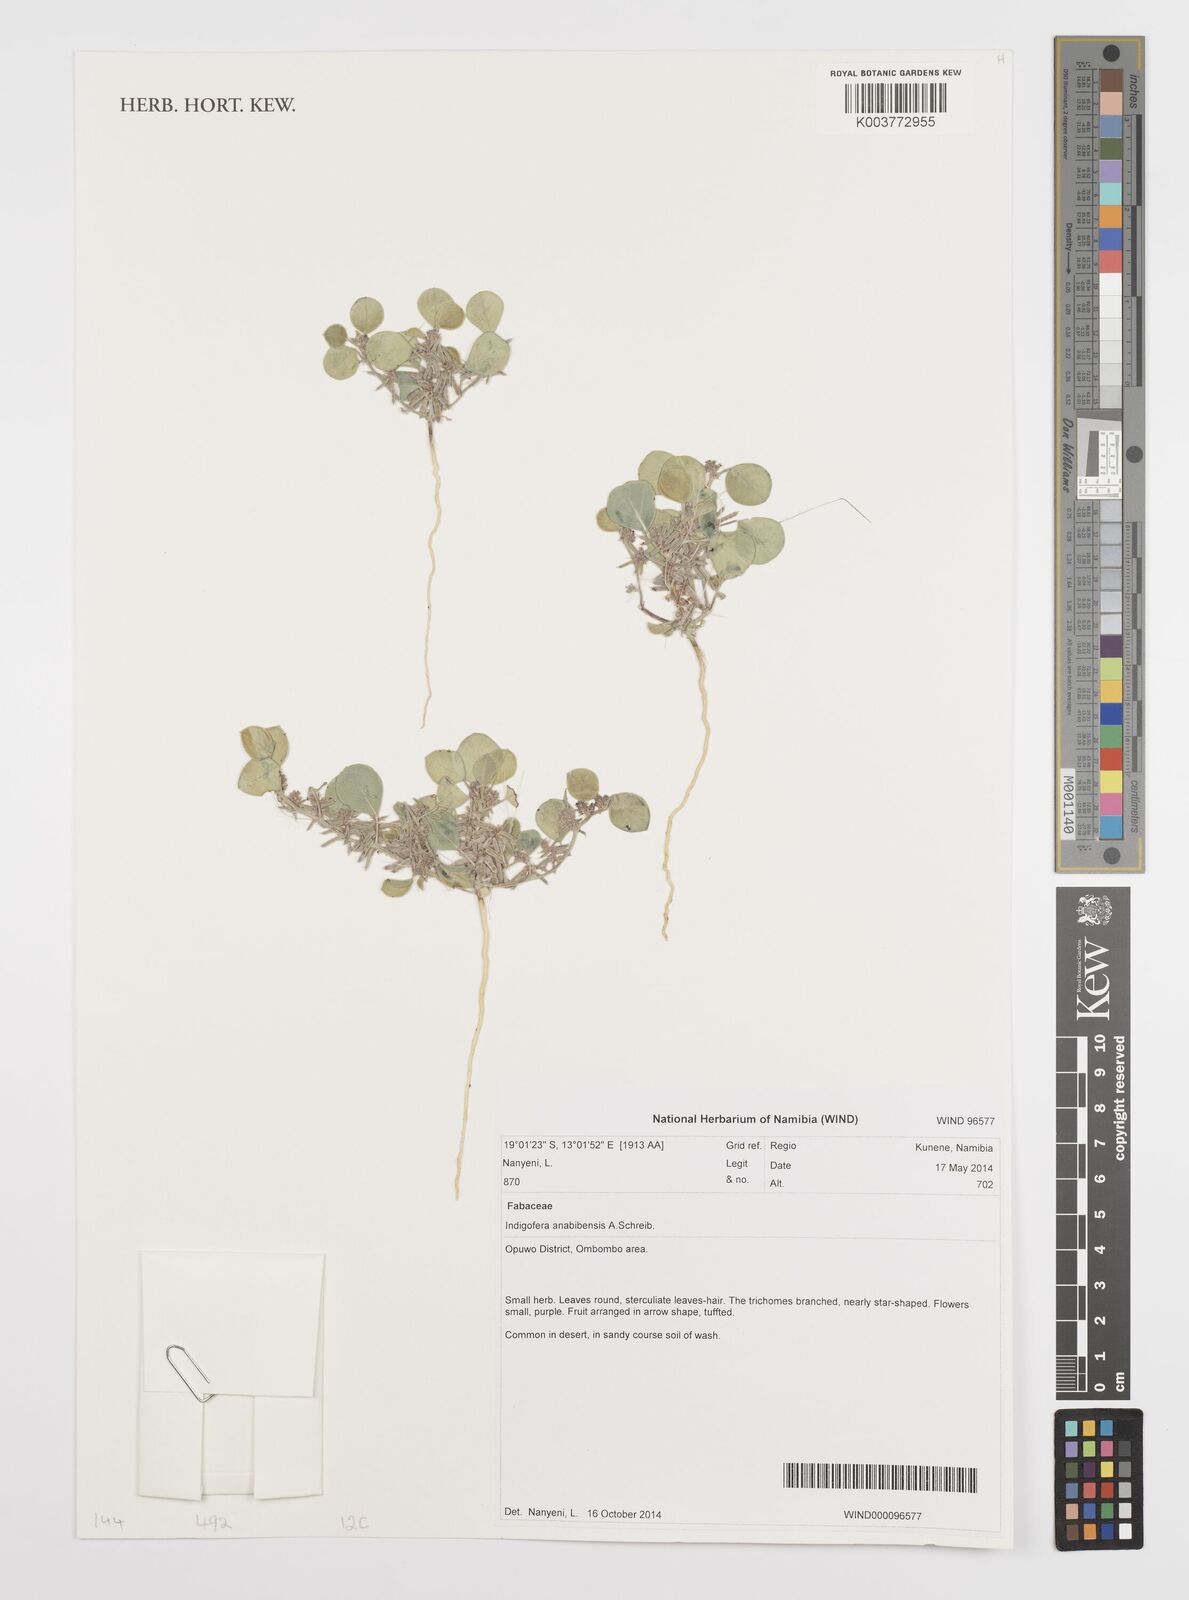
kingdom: Plantae
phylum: Tracheophyta
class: Magnoliopsida
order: Fabales
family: Fabaceae
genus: Indigofera
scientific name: Indigofera anabibensis
